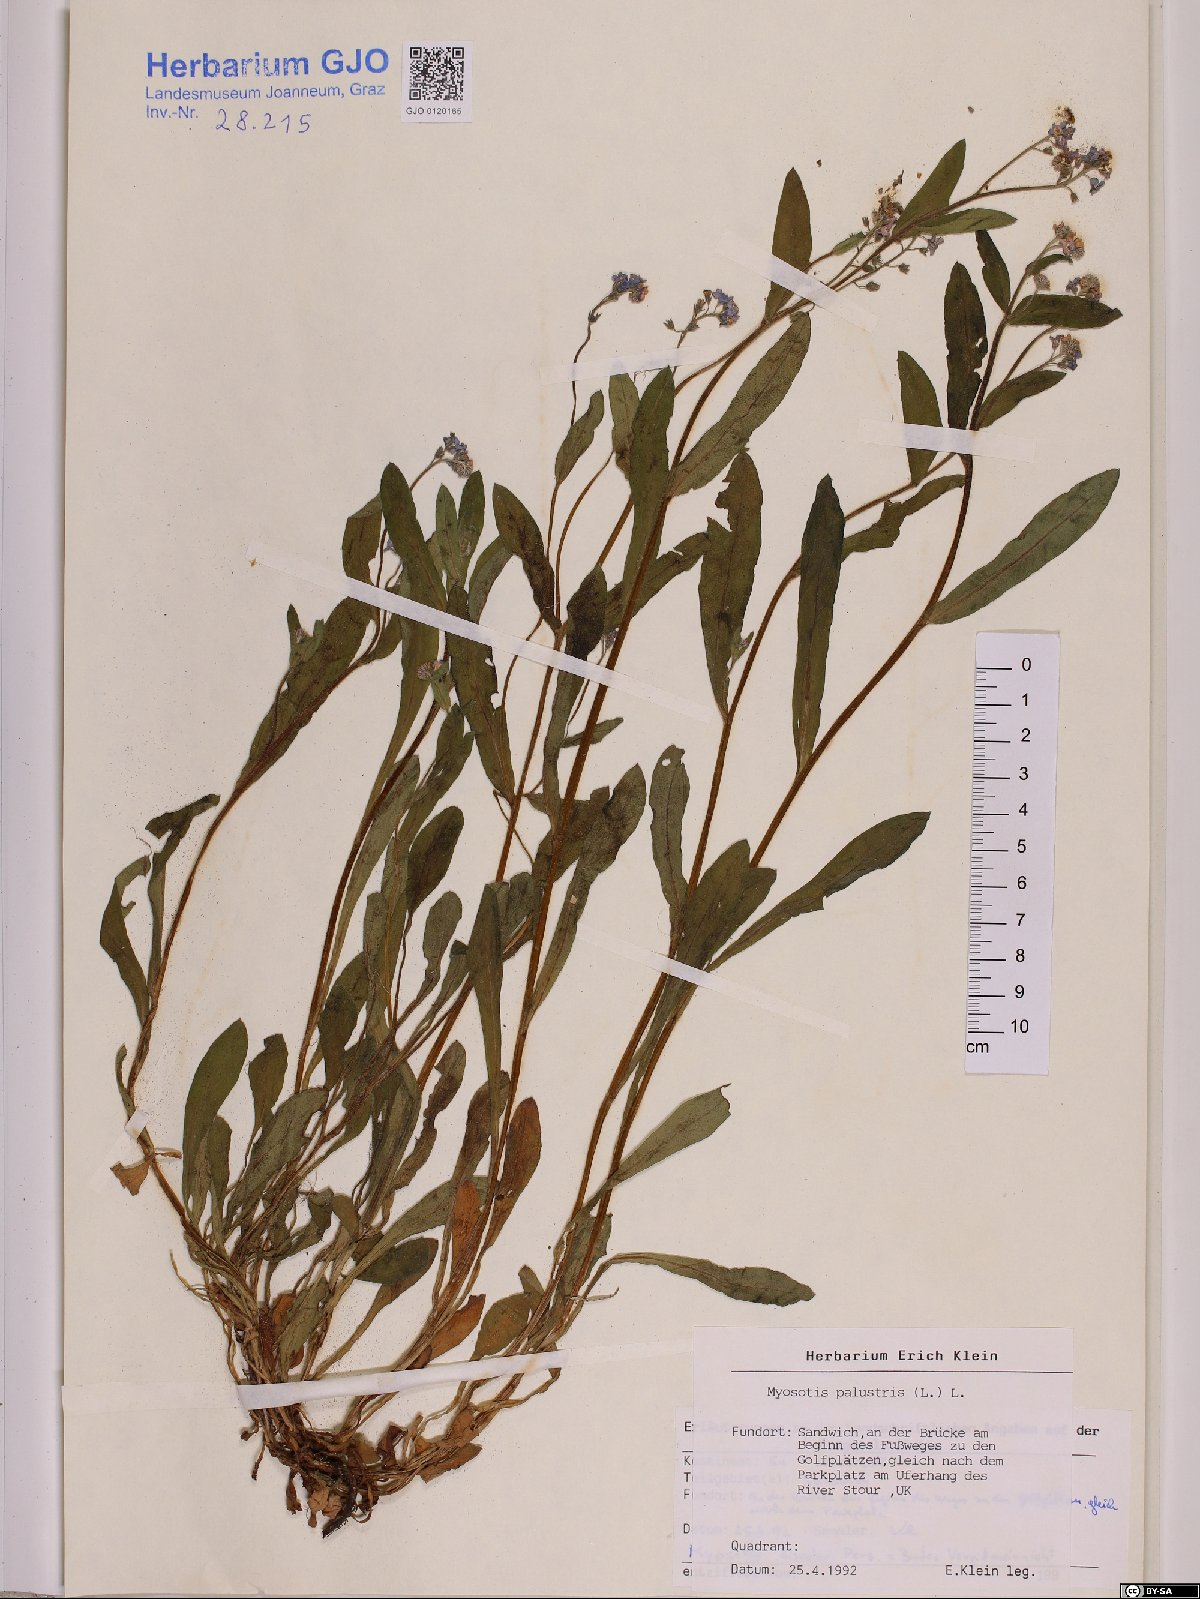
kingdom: Plantae
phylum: Tracheophyta
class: Magnoliopsida
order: Boraginales
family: Boraginaceae
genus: Myosotis
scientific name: Myosotis scorpioides
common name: Water forget-me-not
